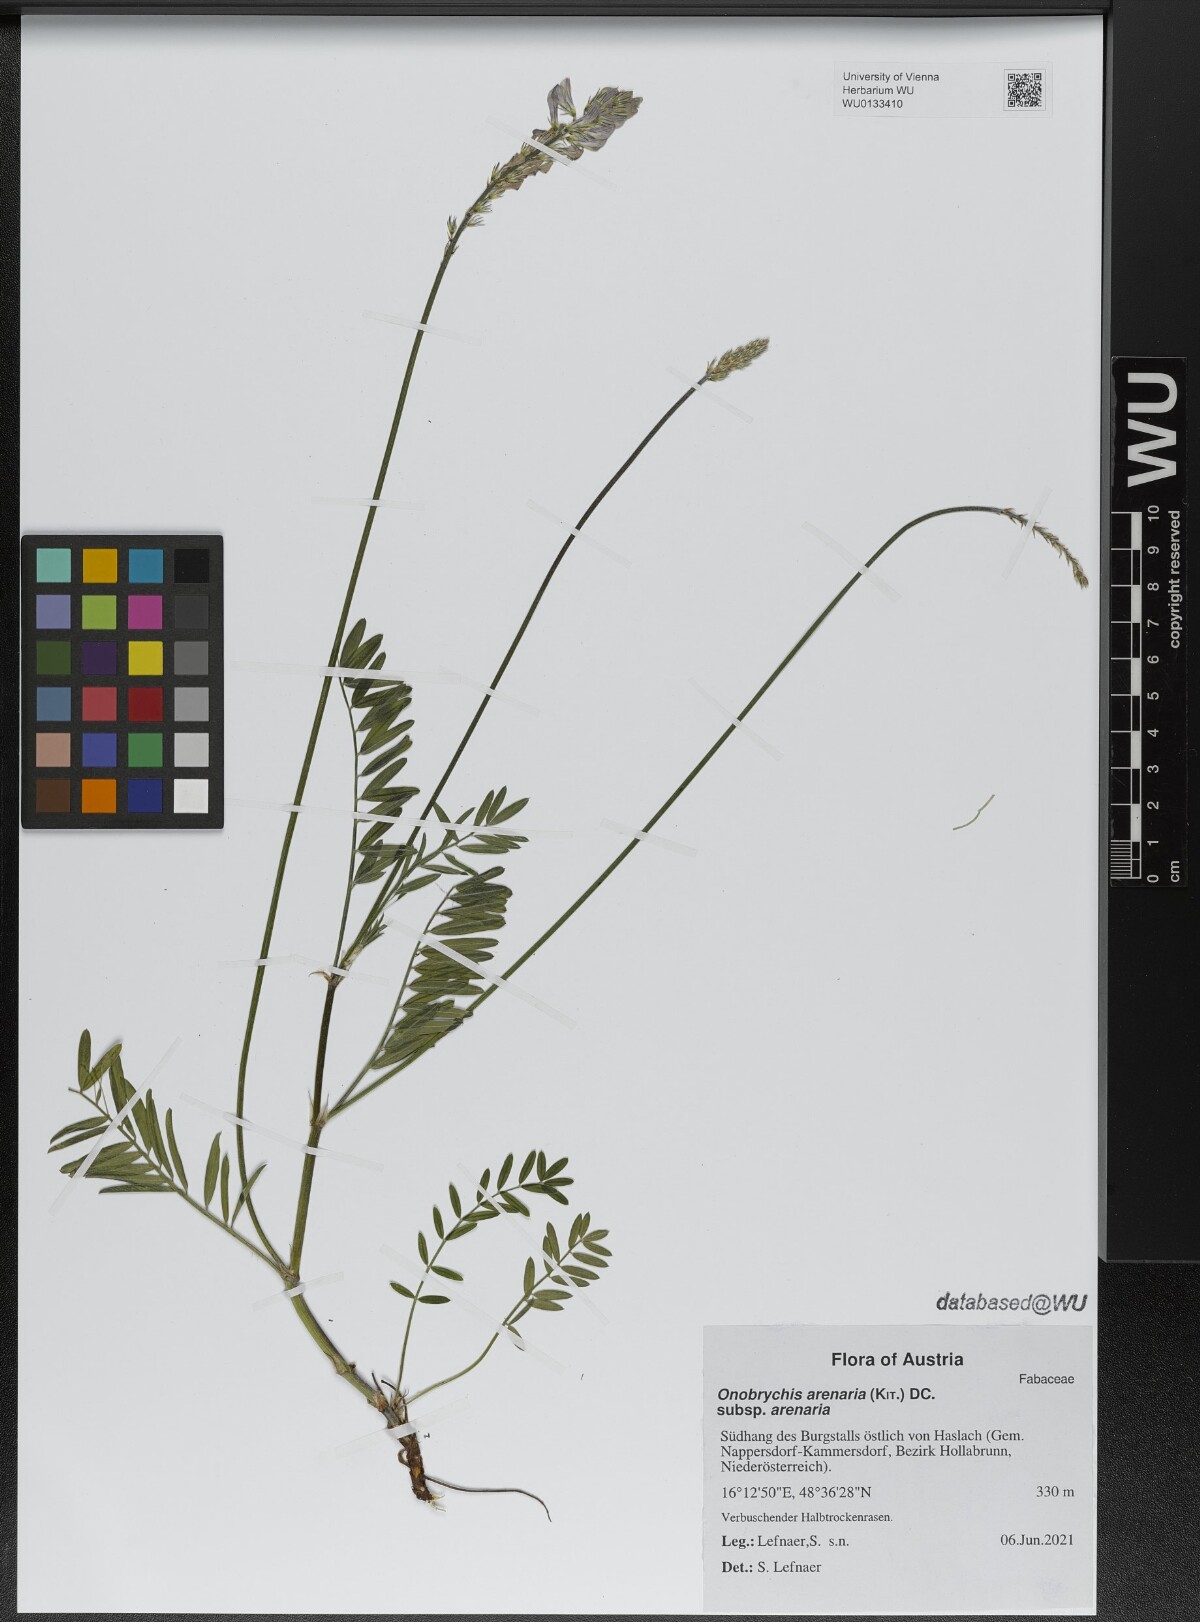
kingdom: Plantae
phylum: Tracheophyta
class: Magnoliopsida
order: Fabales
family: Fabaceae
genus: Onobrychis
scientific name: Onobrychis arenaria
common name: Sand esparcet
